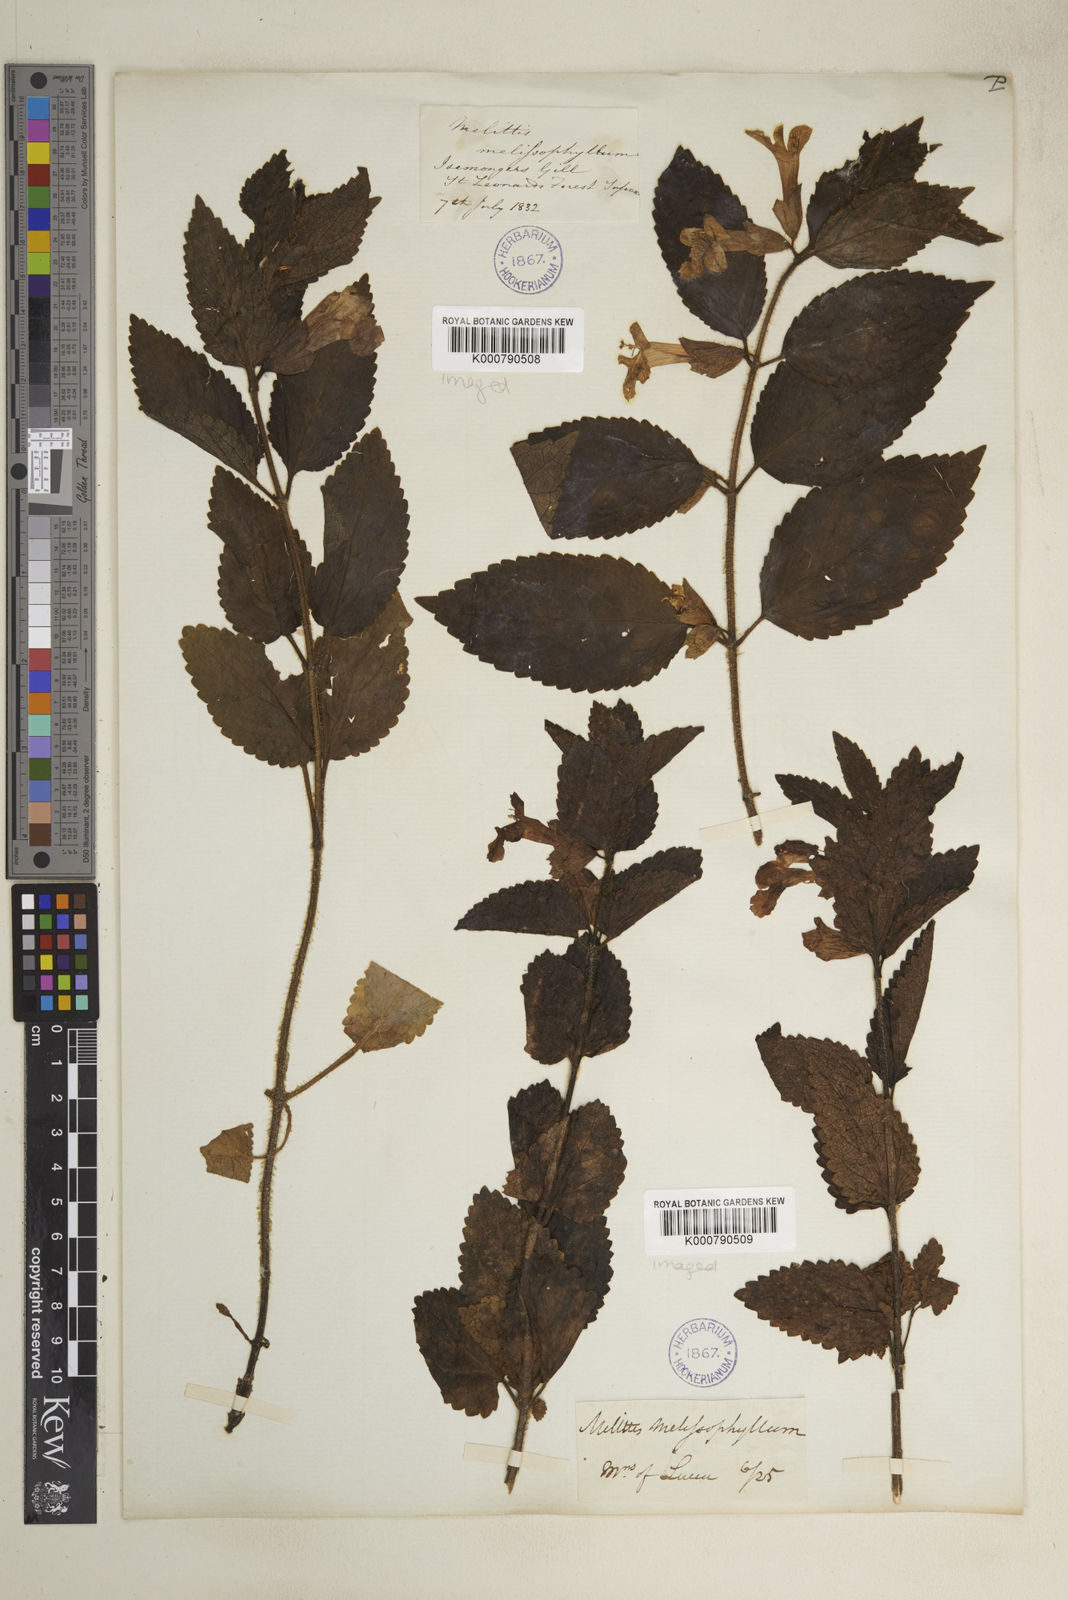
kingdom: Plantae
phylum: Tracheophyta
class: Magnoliopsida
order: Lamiales
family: Lamiaceae
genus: Melittis
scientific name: Melittis melissophyllum
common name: Bastard balm
